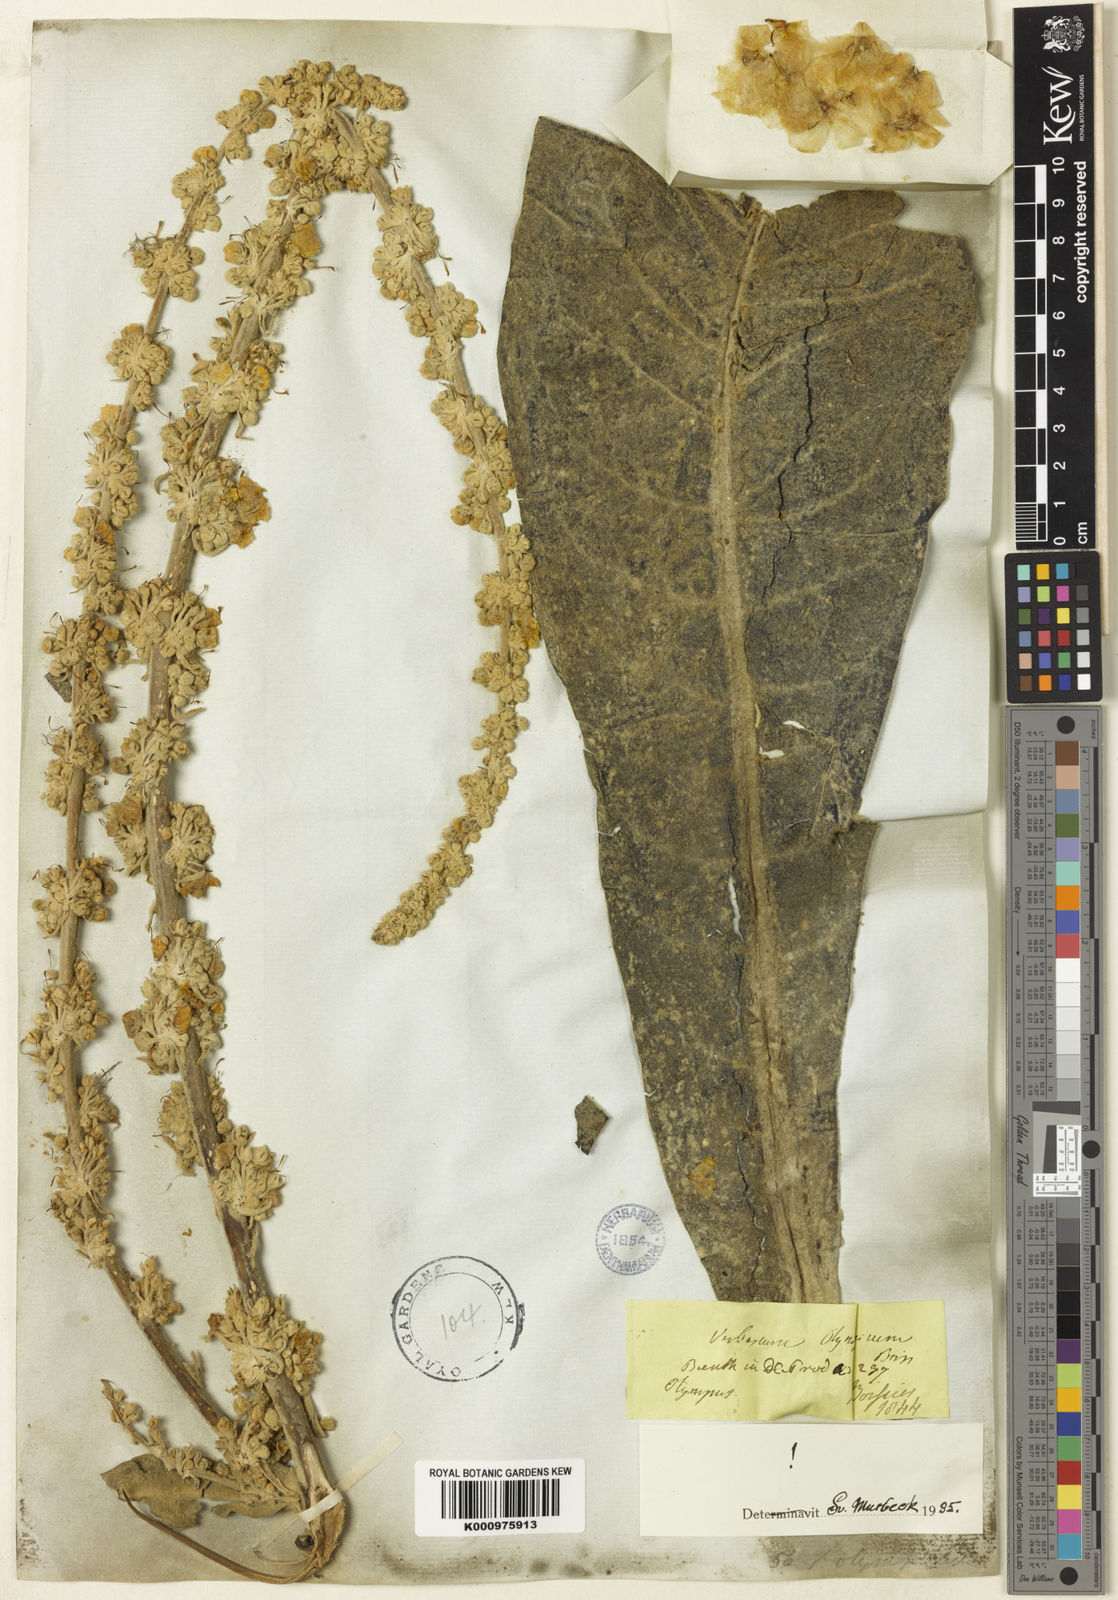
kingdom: Plantae
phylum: Tracheophyta
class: Magnoliopsida
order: Lamiales
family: Scrophulariaceae
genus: Verbascum
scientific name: Verbascum olympicum
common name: Olympic mullein
